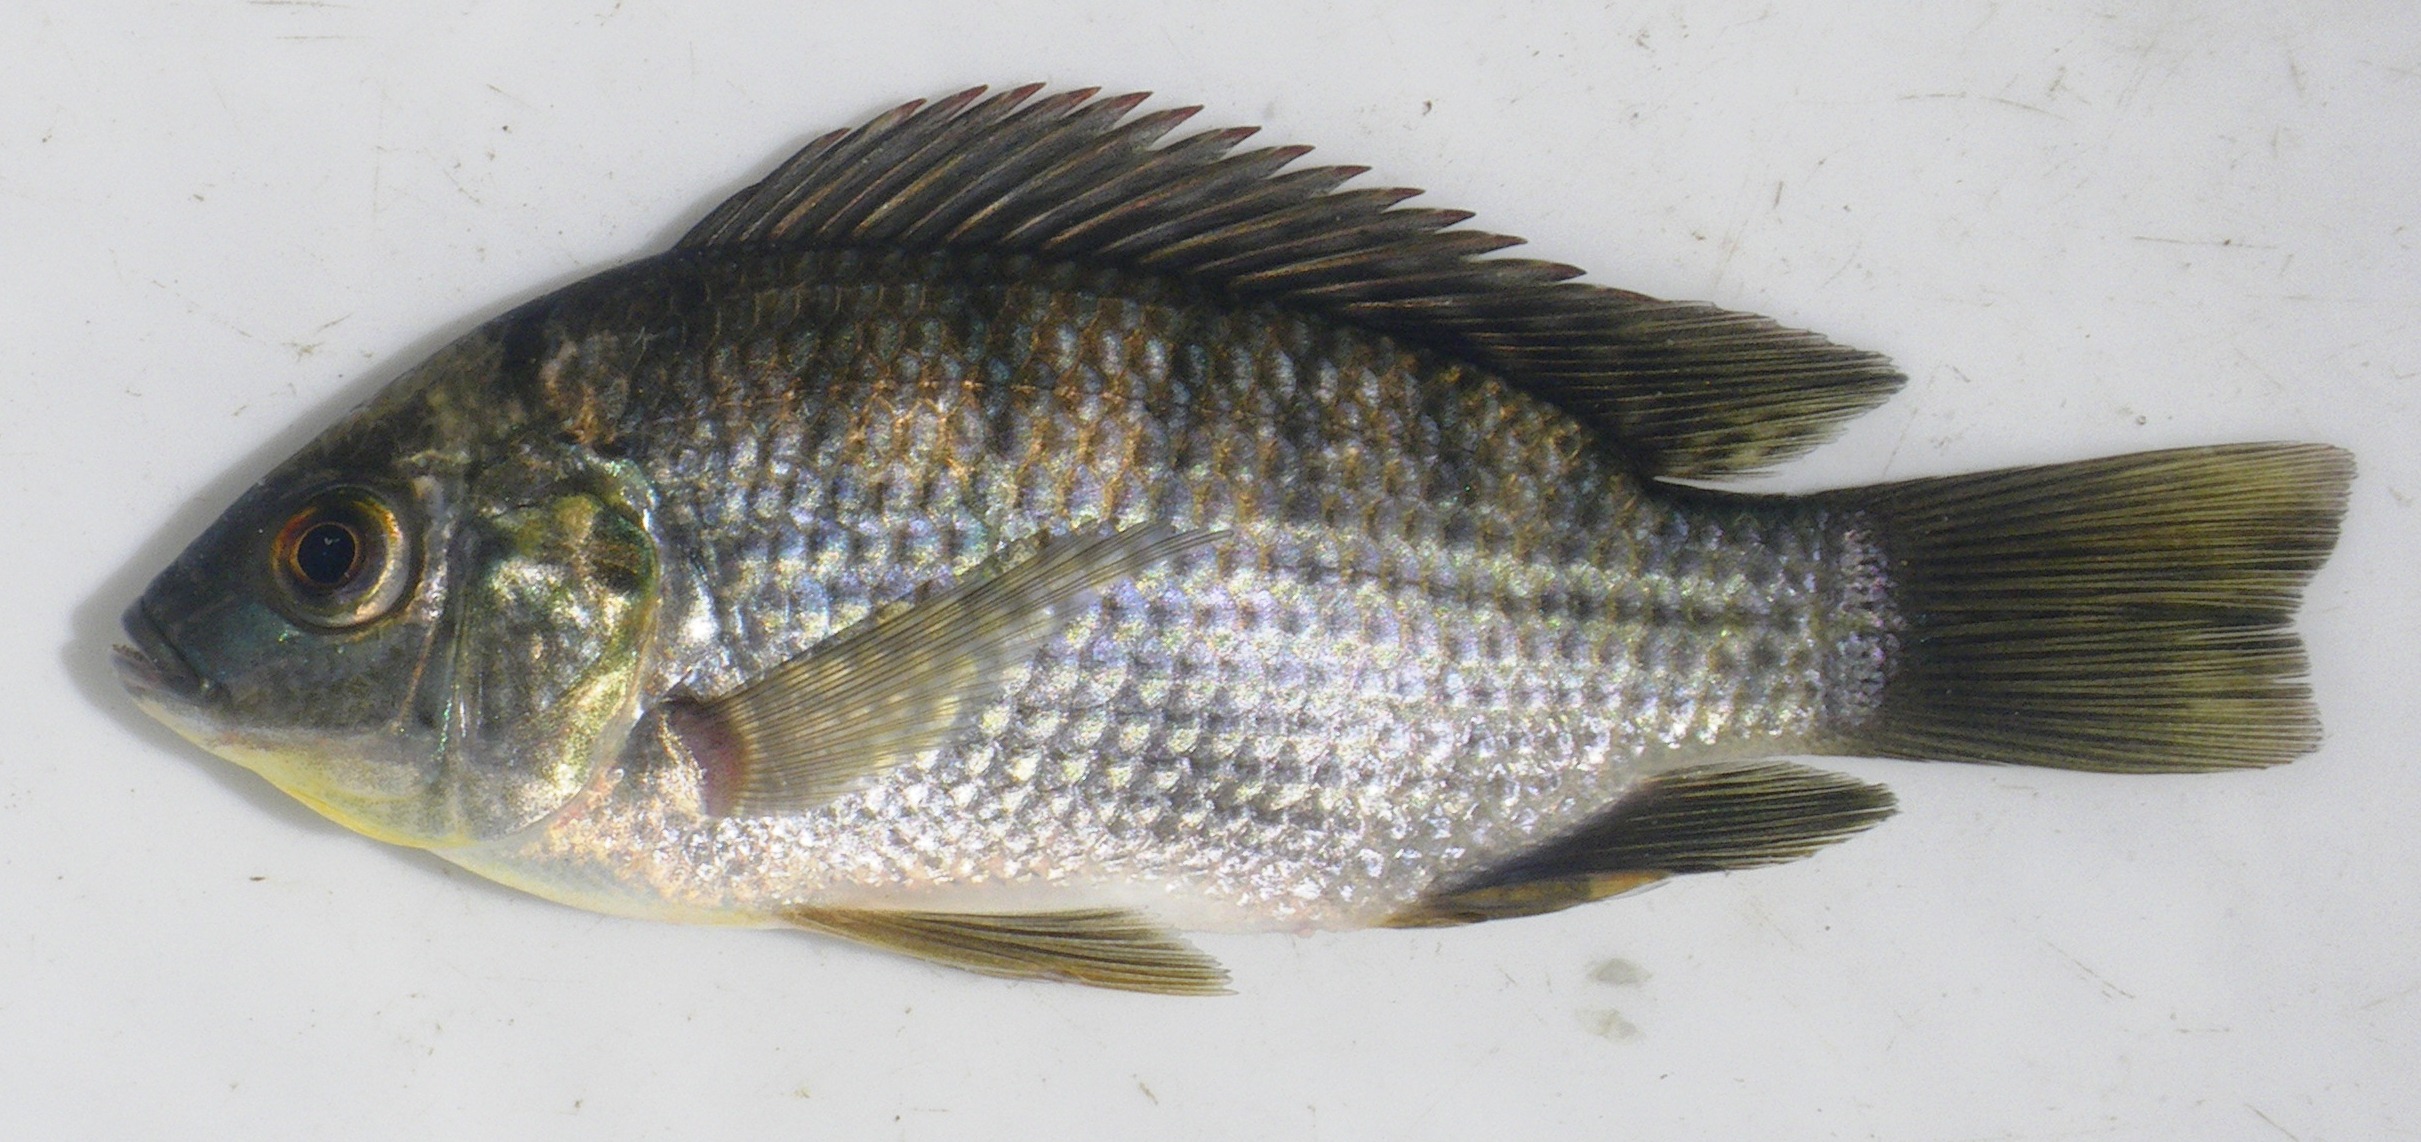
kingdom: Animalia
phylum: Chordata
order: Perciformes
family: Cichlidae
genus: Oreochromis
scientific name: Oreochromis macrochir
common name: Greenhead tilapia
